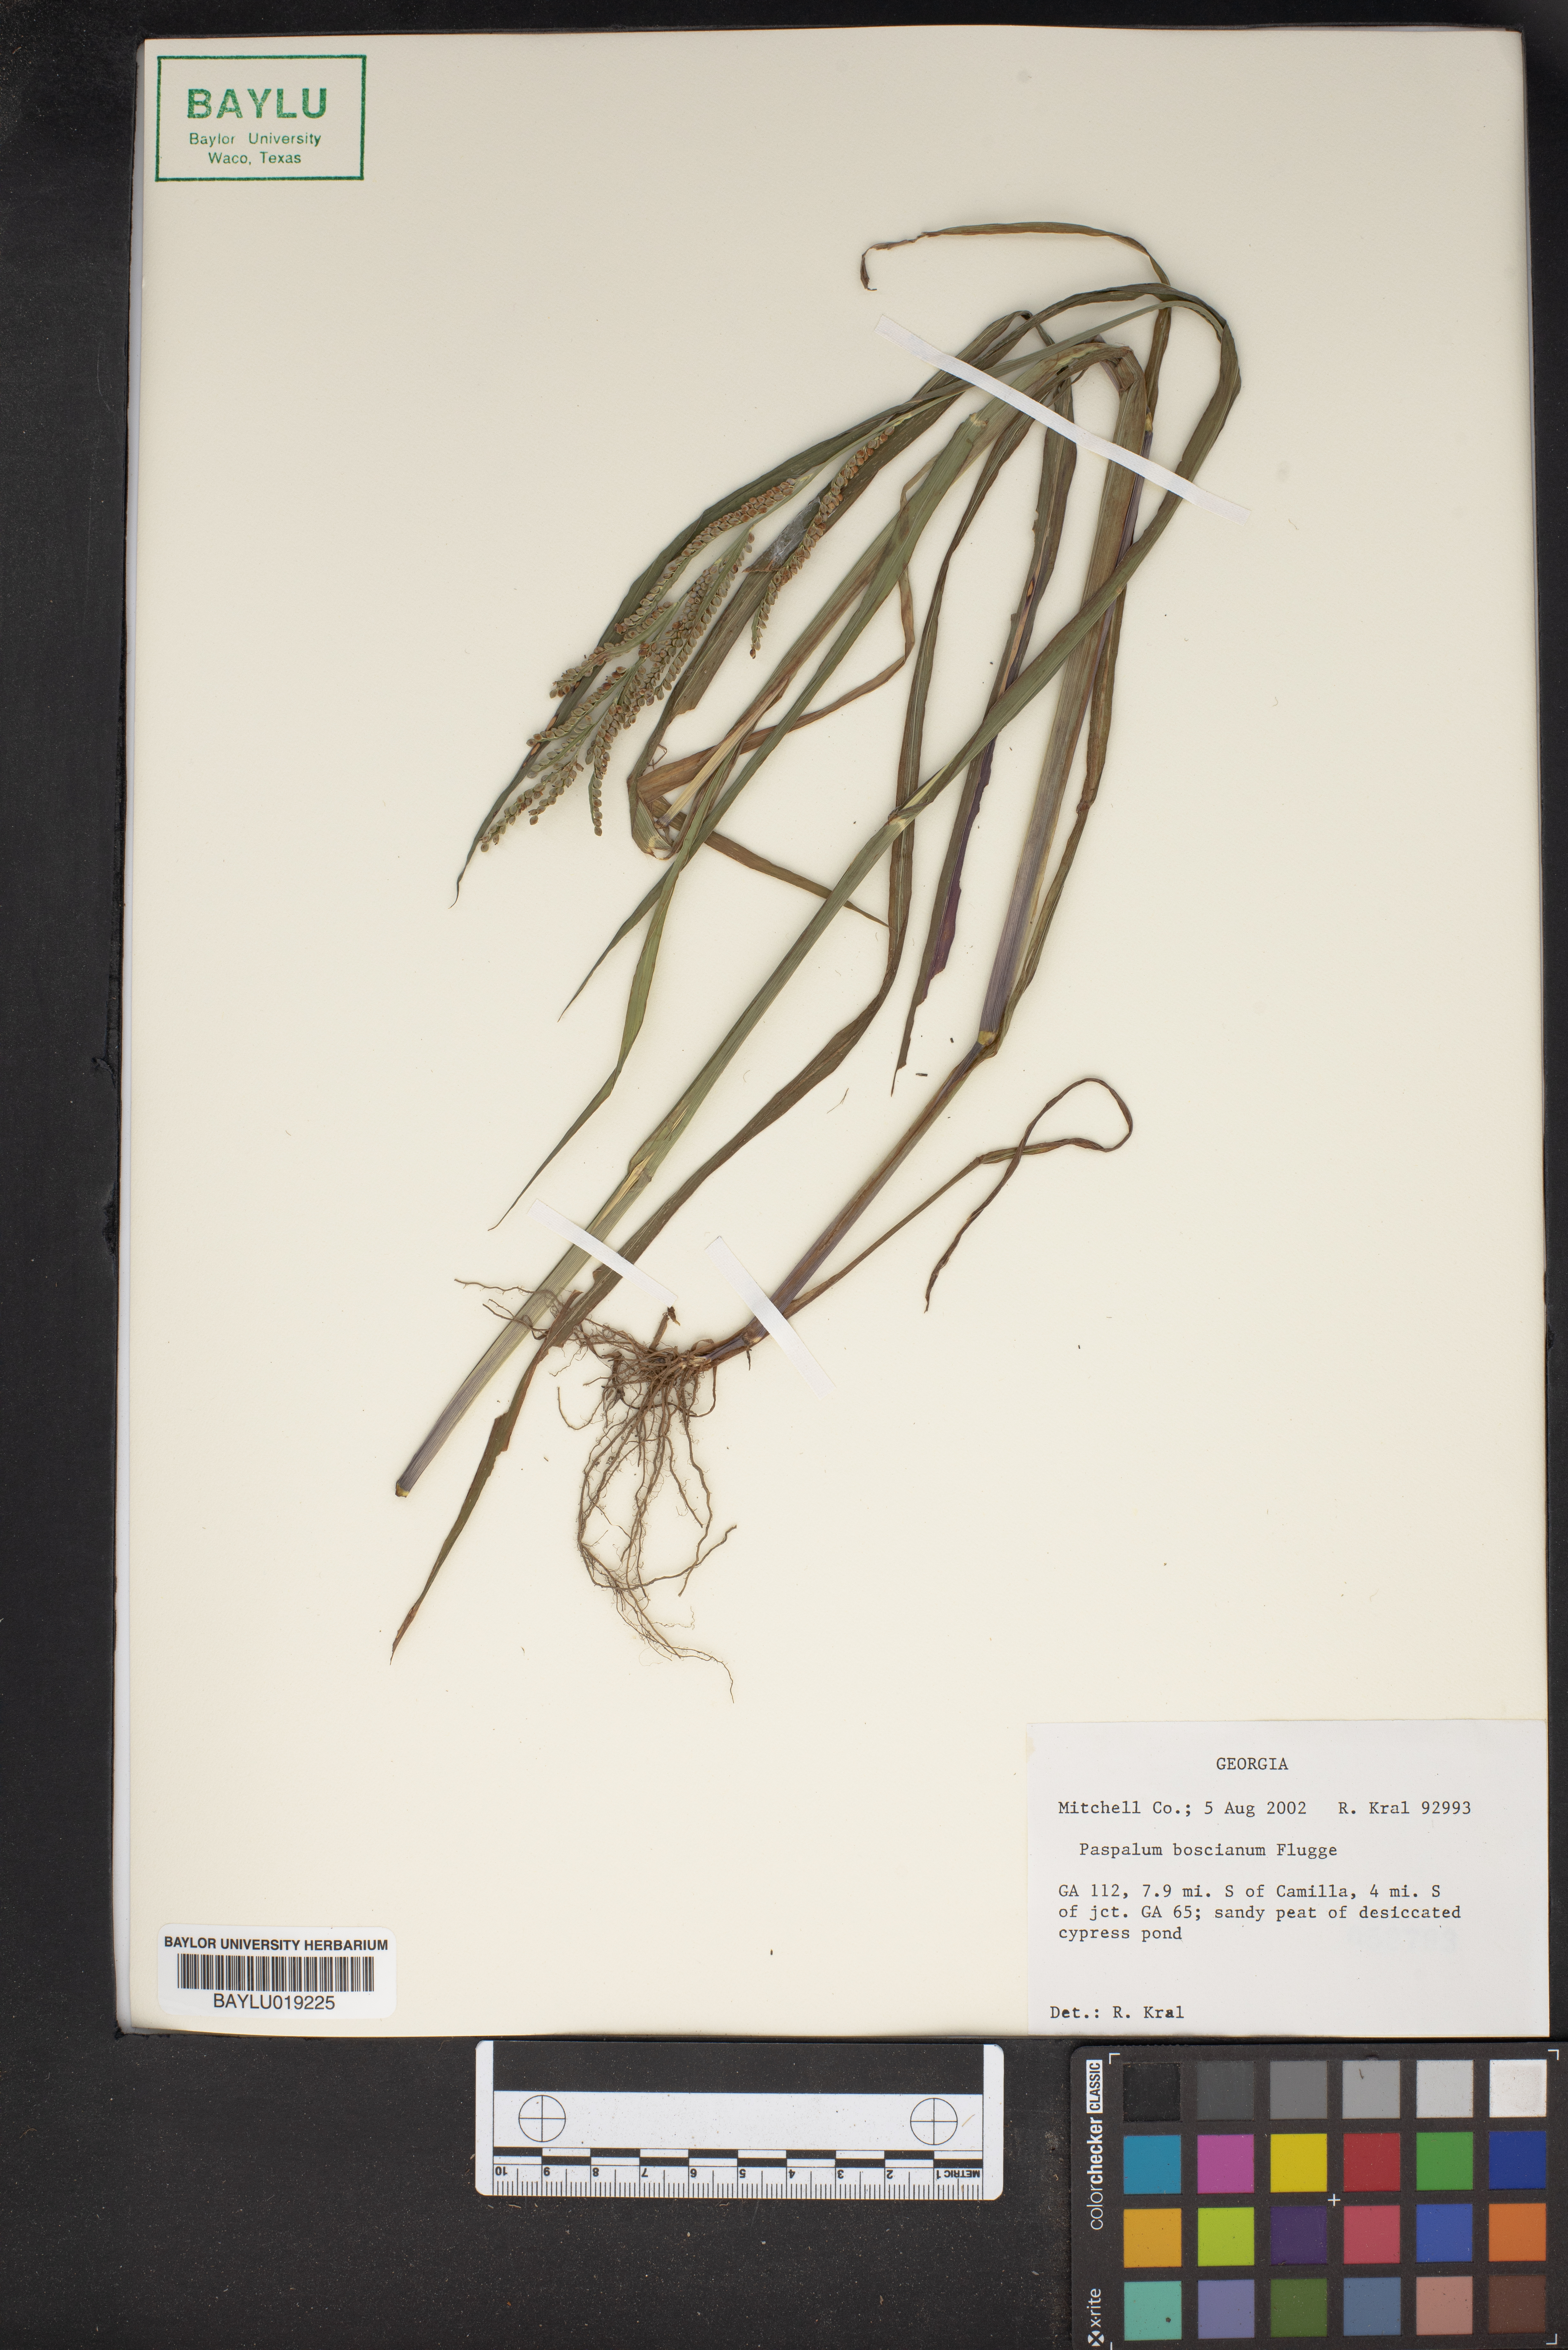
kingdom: Plantae
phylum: Tracheophyta
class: Liliopsida
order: Poales
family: Poaceae
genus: Paspalum
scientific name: Paspalum scrobiculatum
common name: Kodo millet
